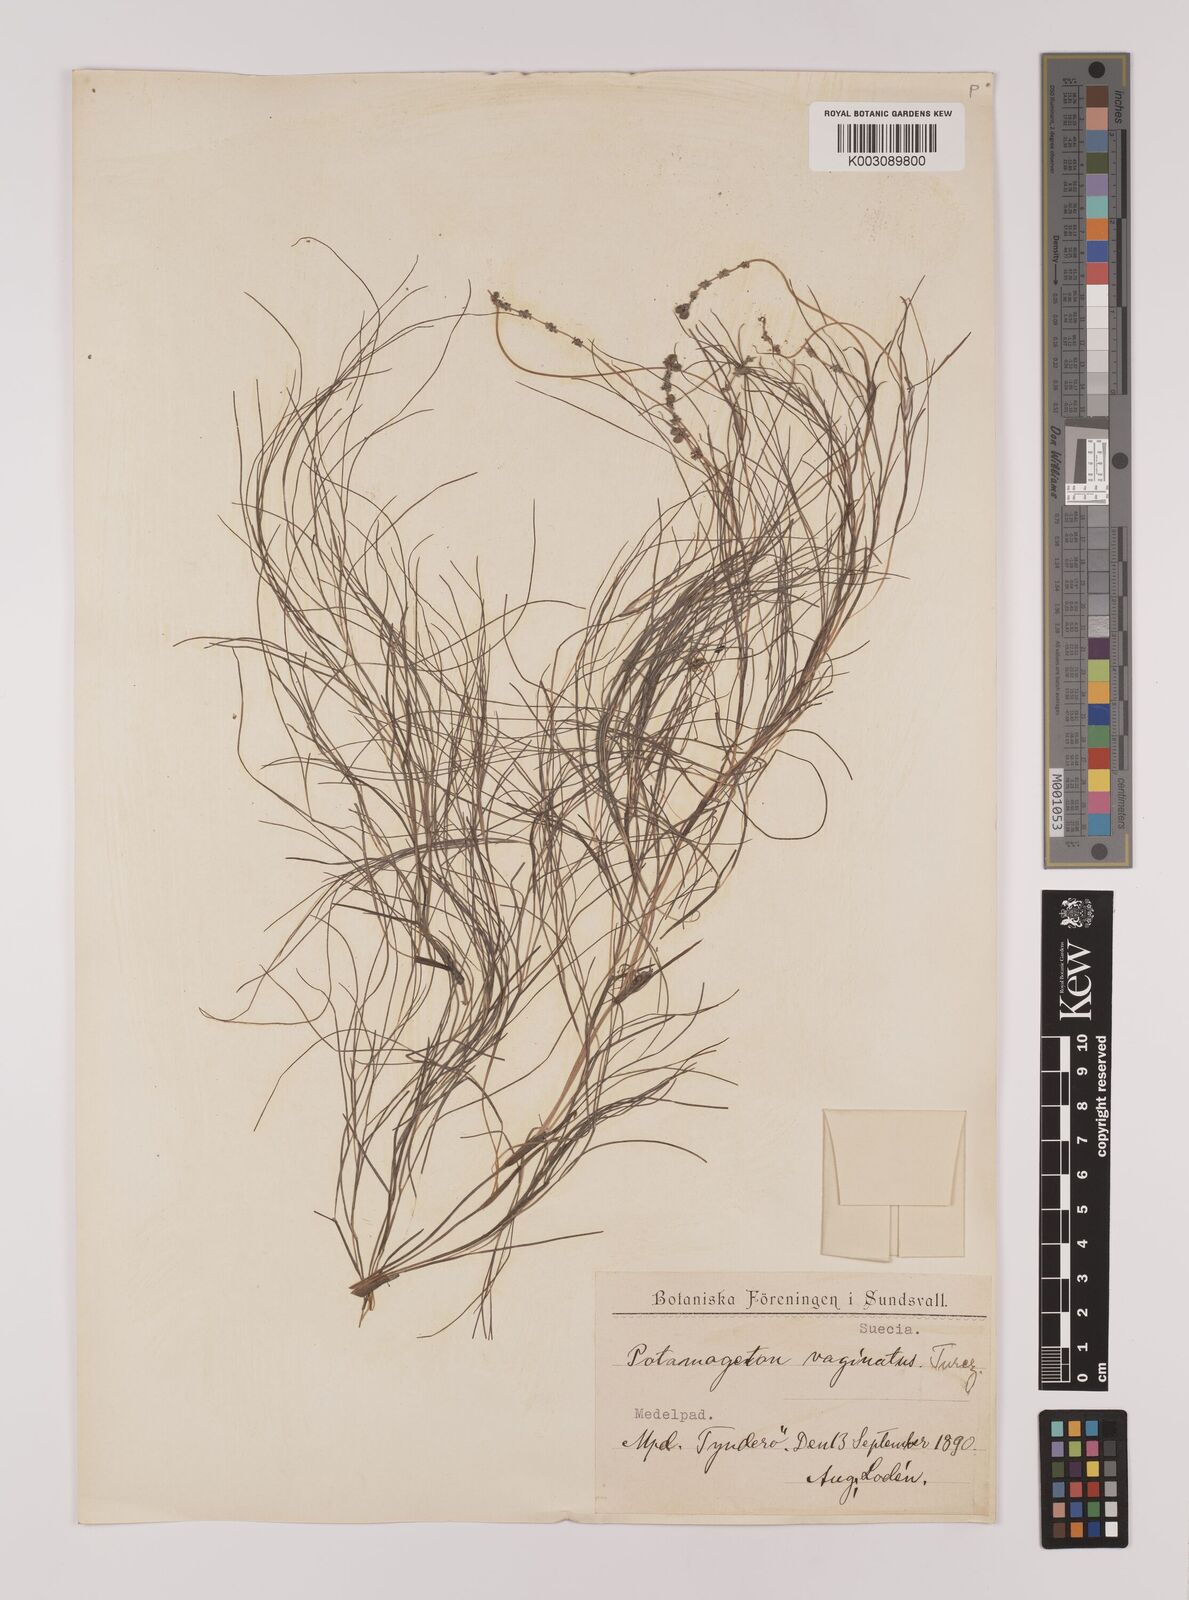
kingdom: Plantae
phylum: Tracheophyta
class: Liliopsida
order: Alismatales
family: Potamogetonaceae
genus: Stuckenia
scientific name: Stuckenia pectinata
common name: Sago pondweed
